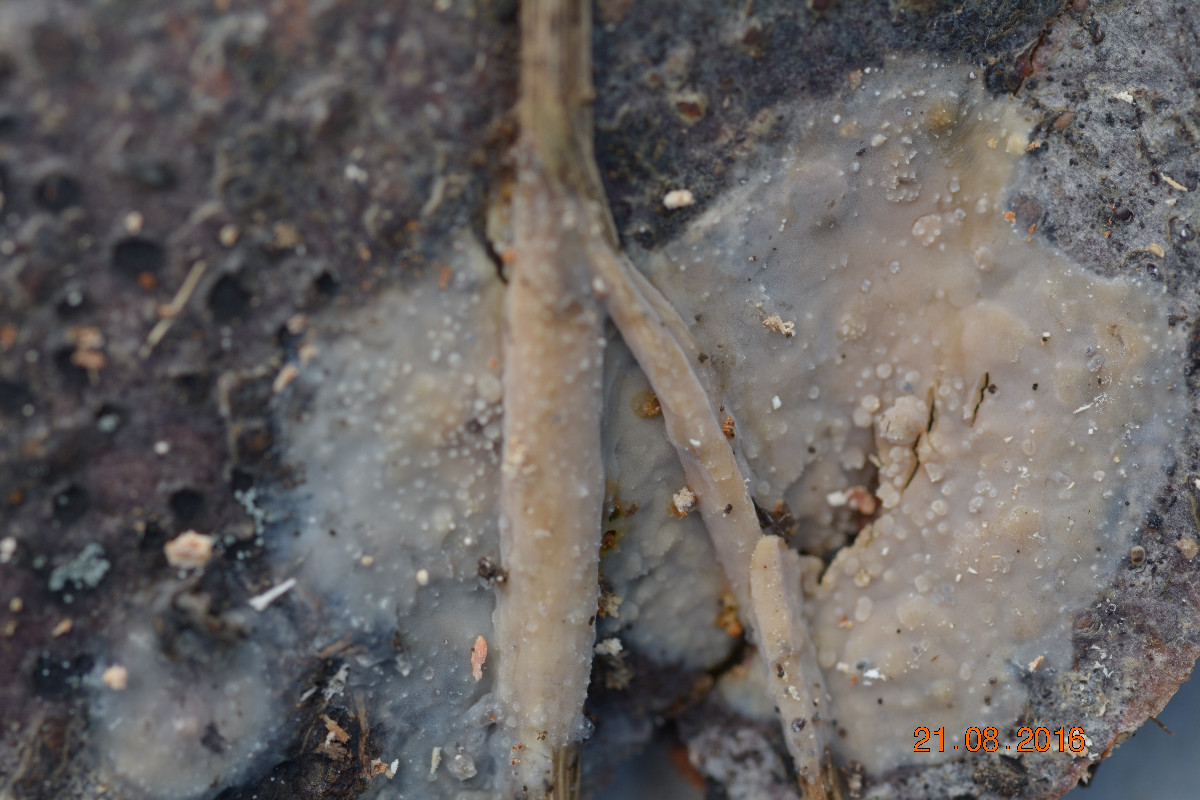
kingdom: Fungi
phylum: Basidiomycota
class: Agaricomycetes
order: Polyporales
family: Meruliaceae
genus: Cytidiella
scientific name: Cytidiella albida
